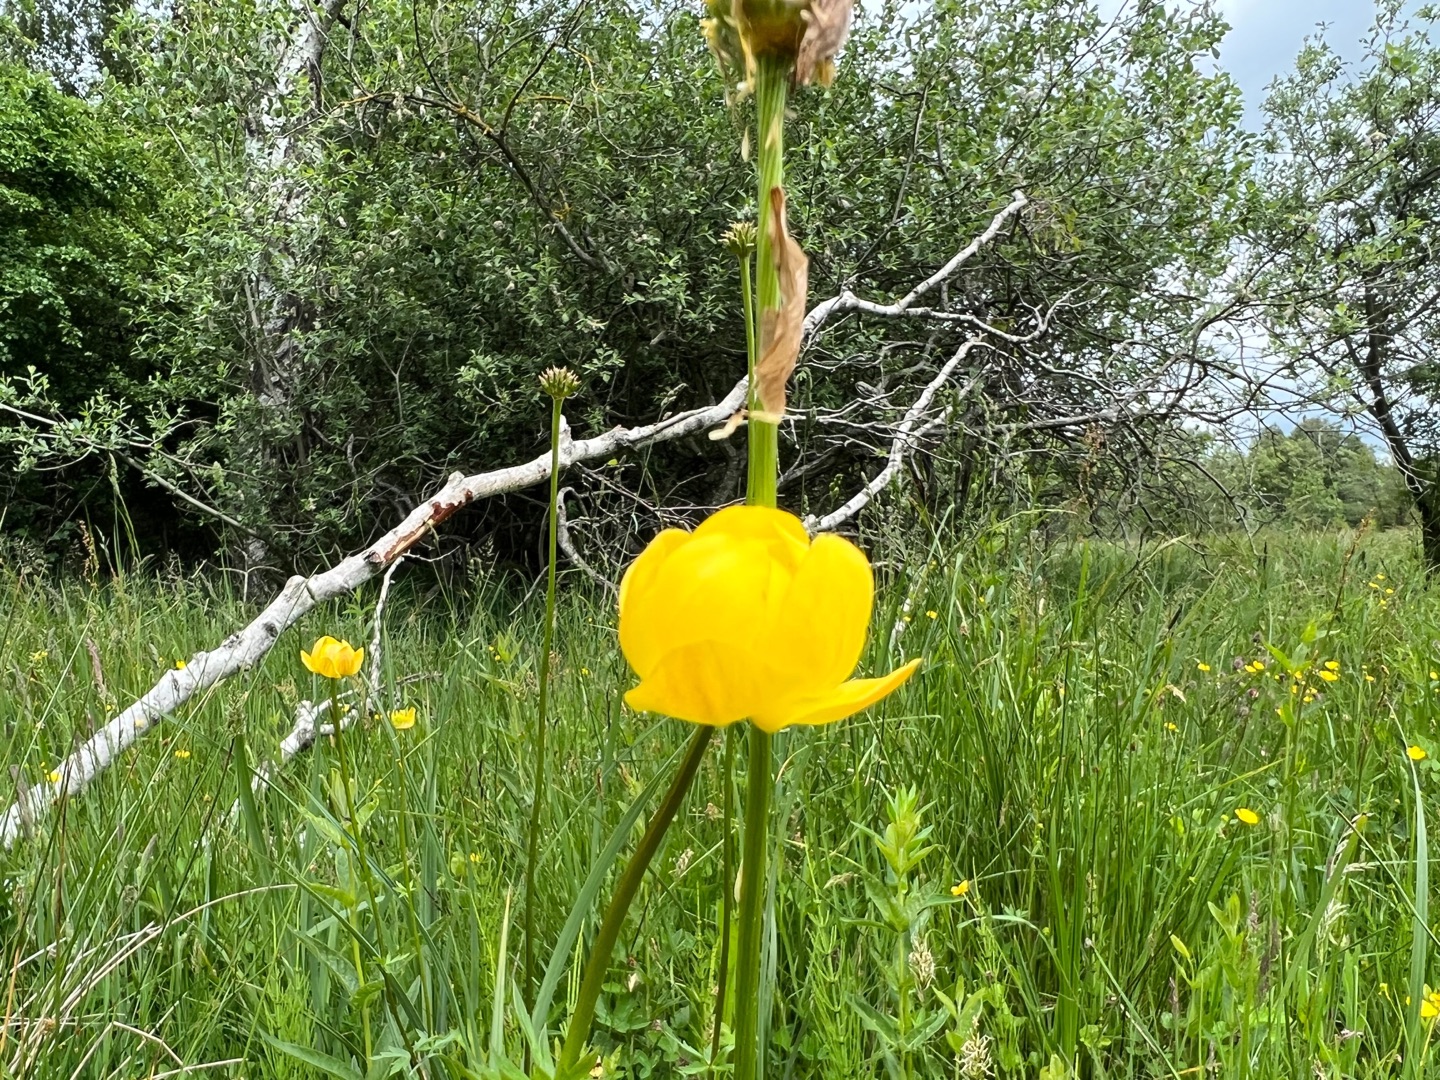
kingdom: Plantae
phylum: Tracheophyta
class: Magnoliopsida
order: Ranunculales
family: Ranunculaceae
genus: Trollius
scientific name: Trollius europaeus
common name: Engblomme
